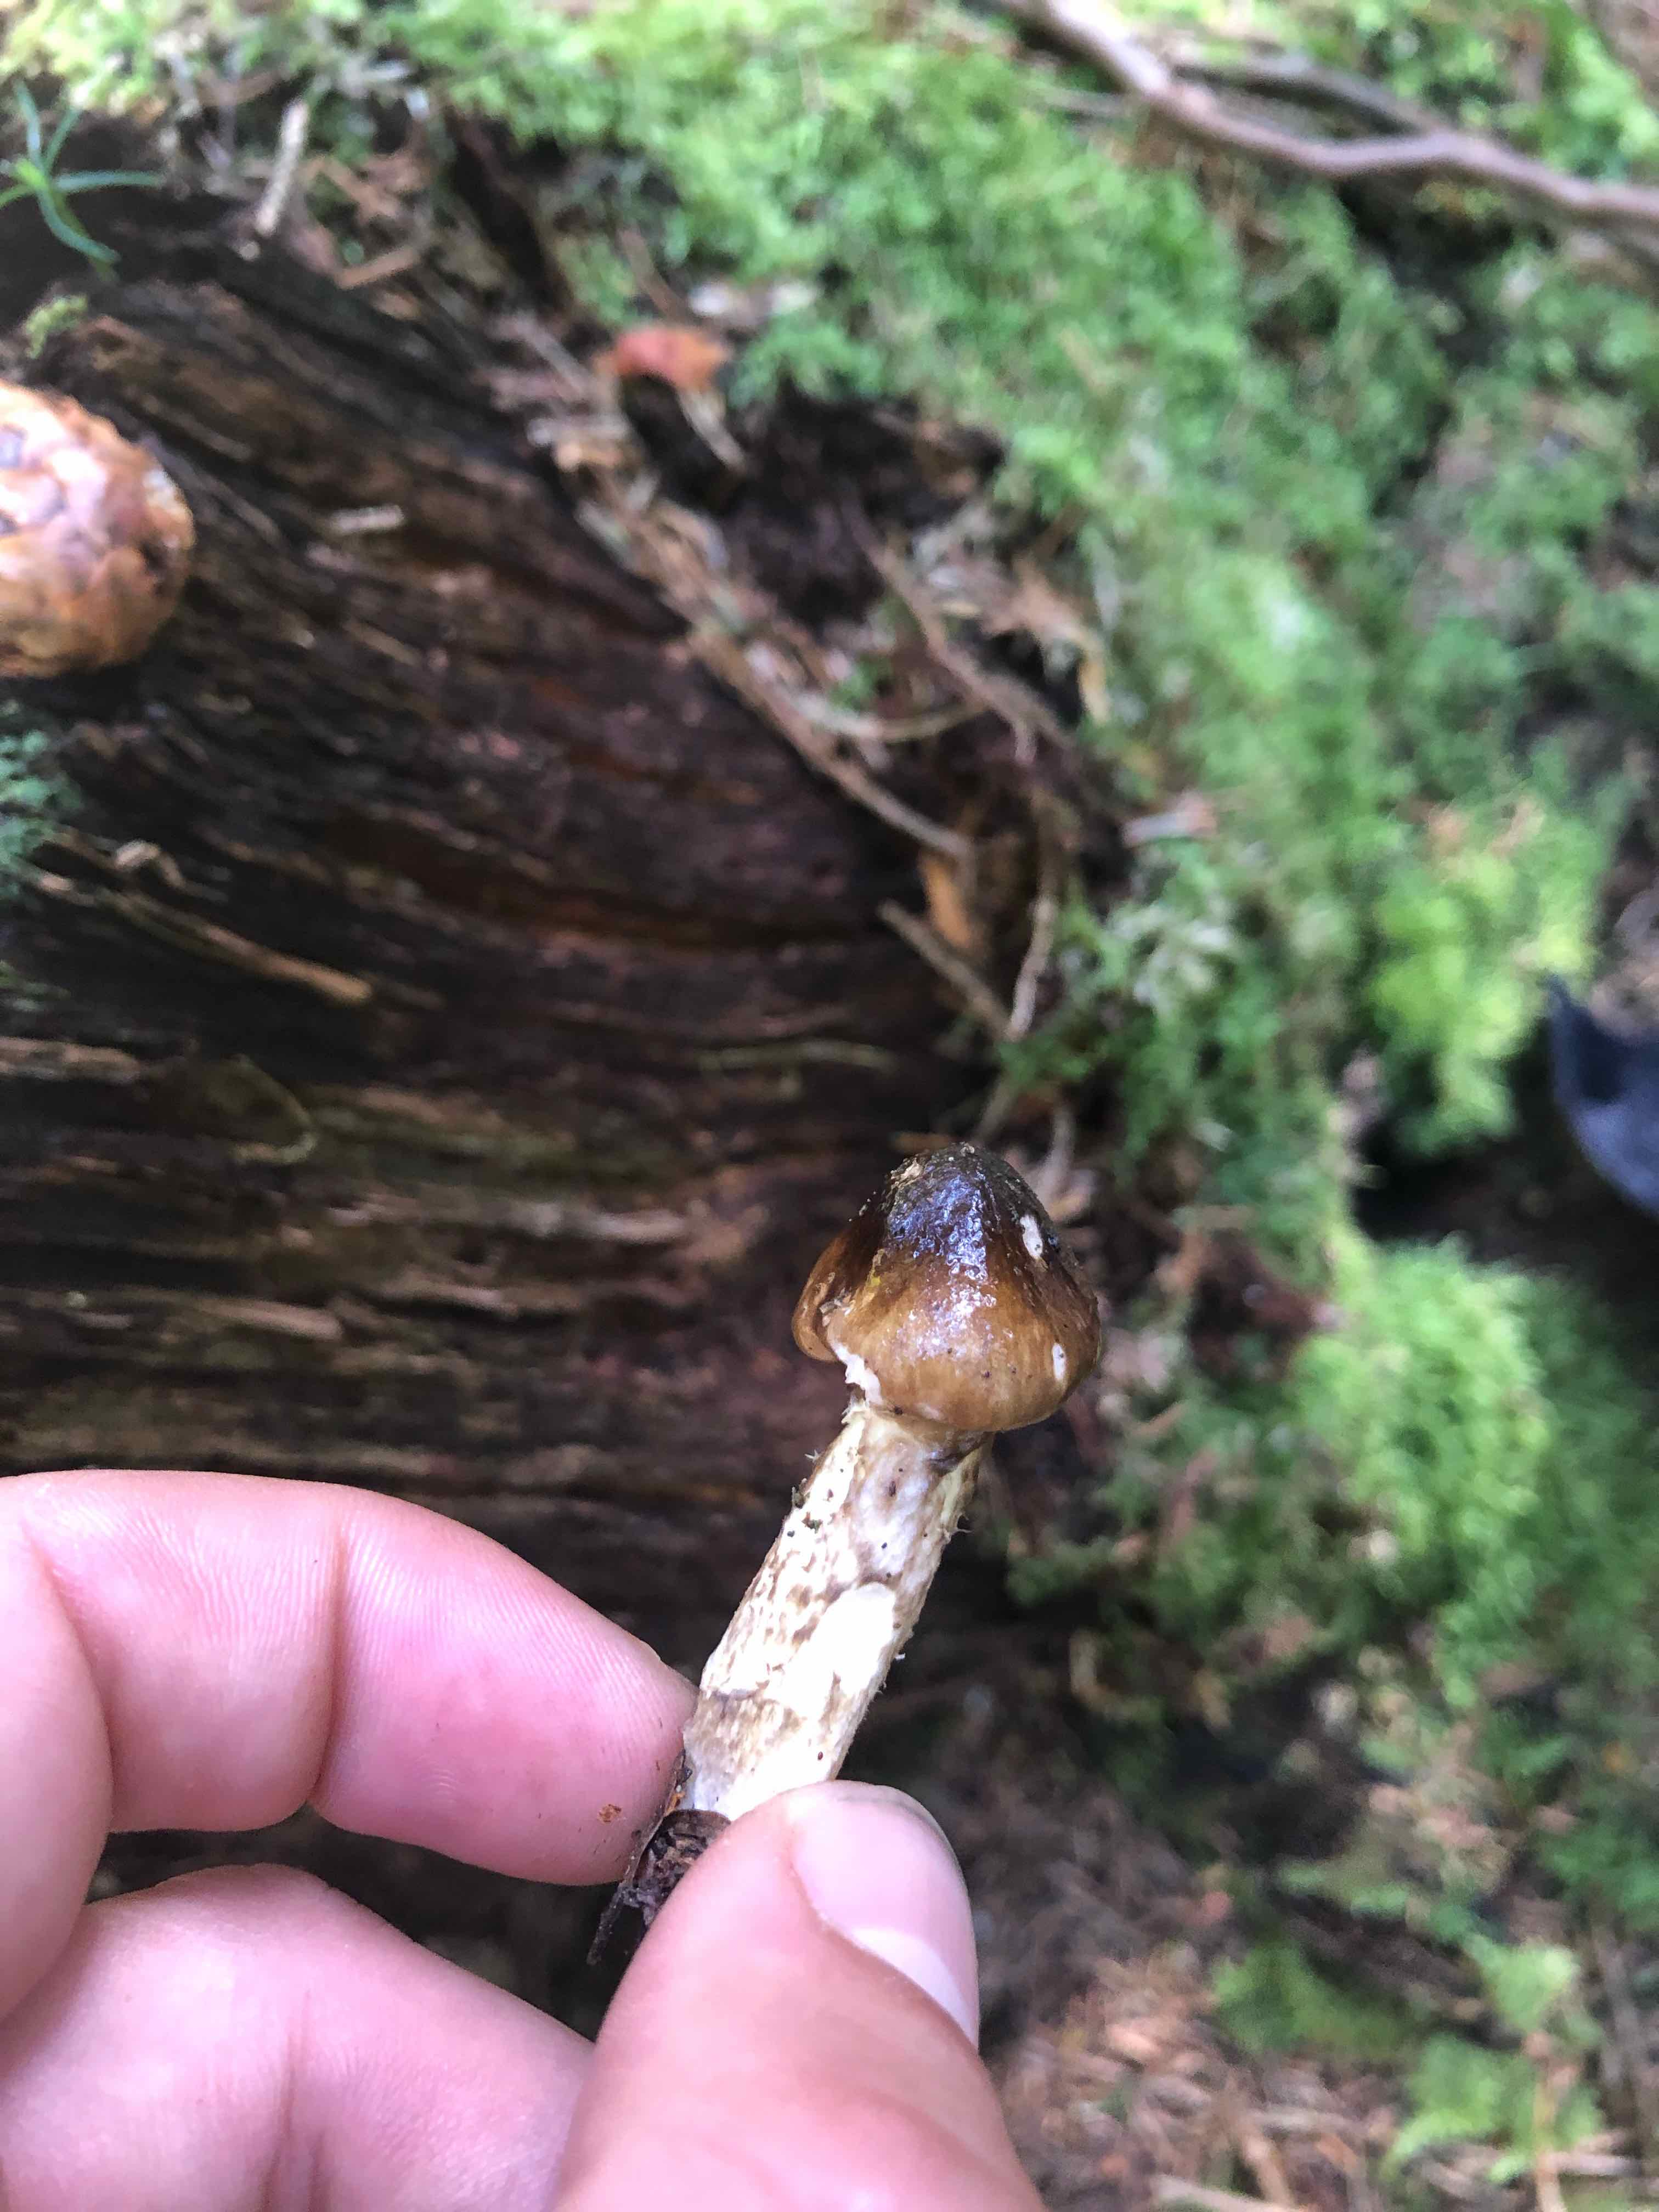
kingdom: Fungi
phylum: Basidiomycota
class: Agaricomycetes
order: Agaricales
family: Hygrophoraceae
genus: Hygrophorus
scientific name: Hygrophorus
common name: sneglehat
